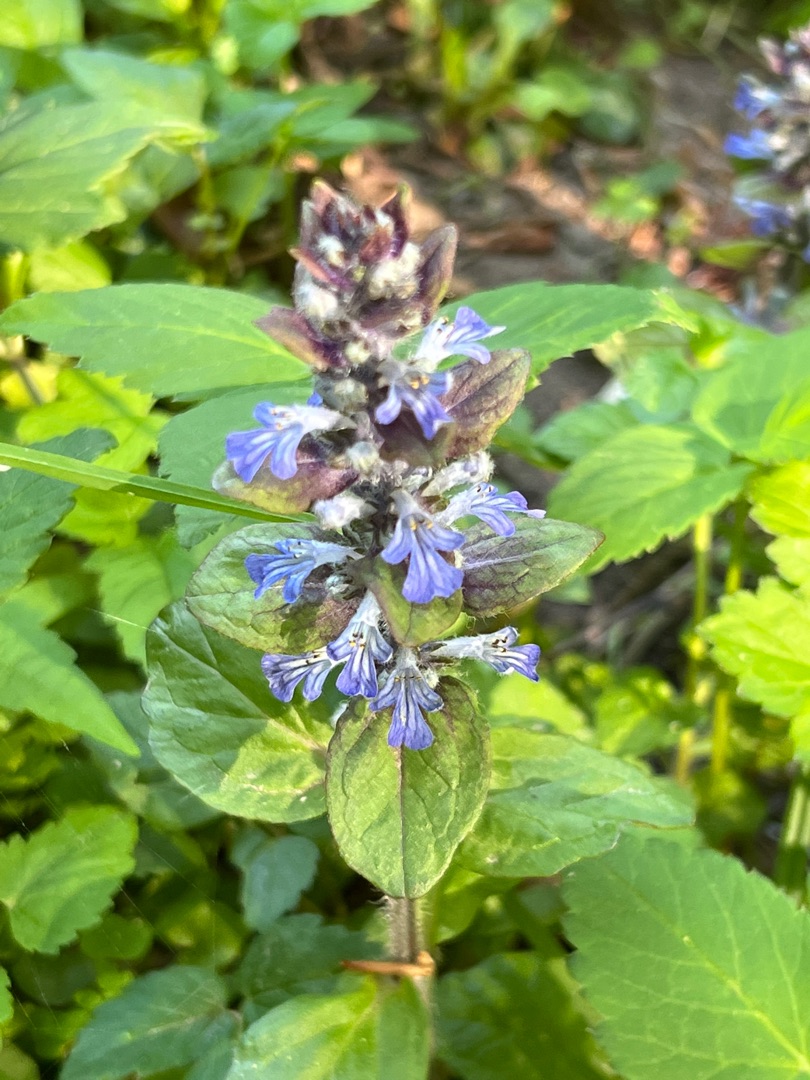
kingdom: Plantae
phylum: Tracheophyta
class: Magnoliopsida
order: Lamiales
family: Lamiaceae
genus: Ajuga
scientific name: Ajuga reptans
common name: Krybende læbeløs
